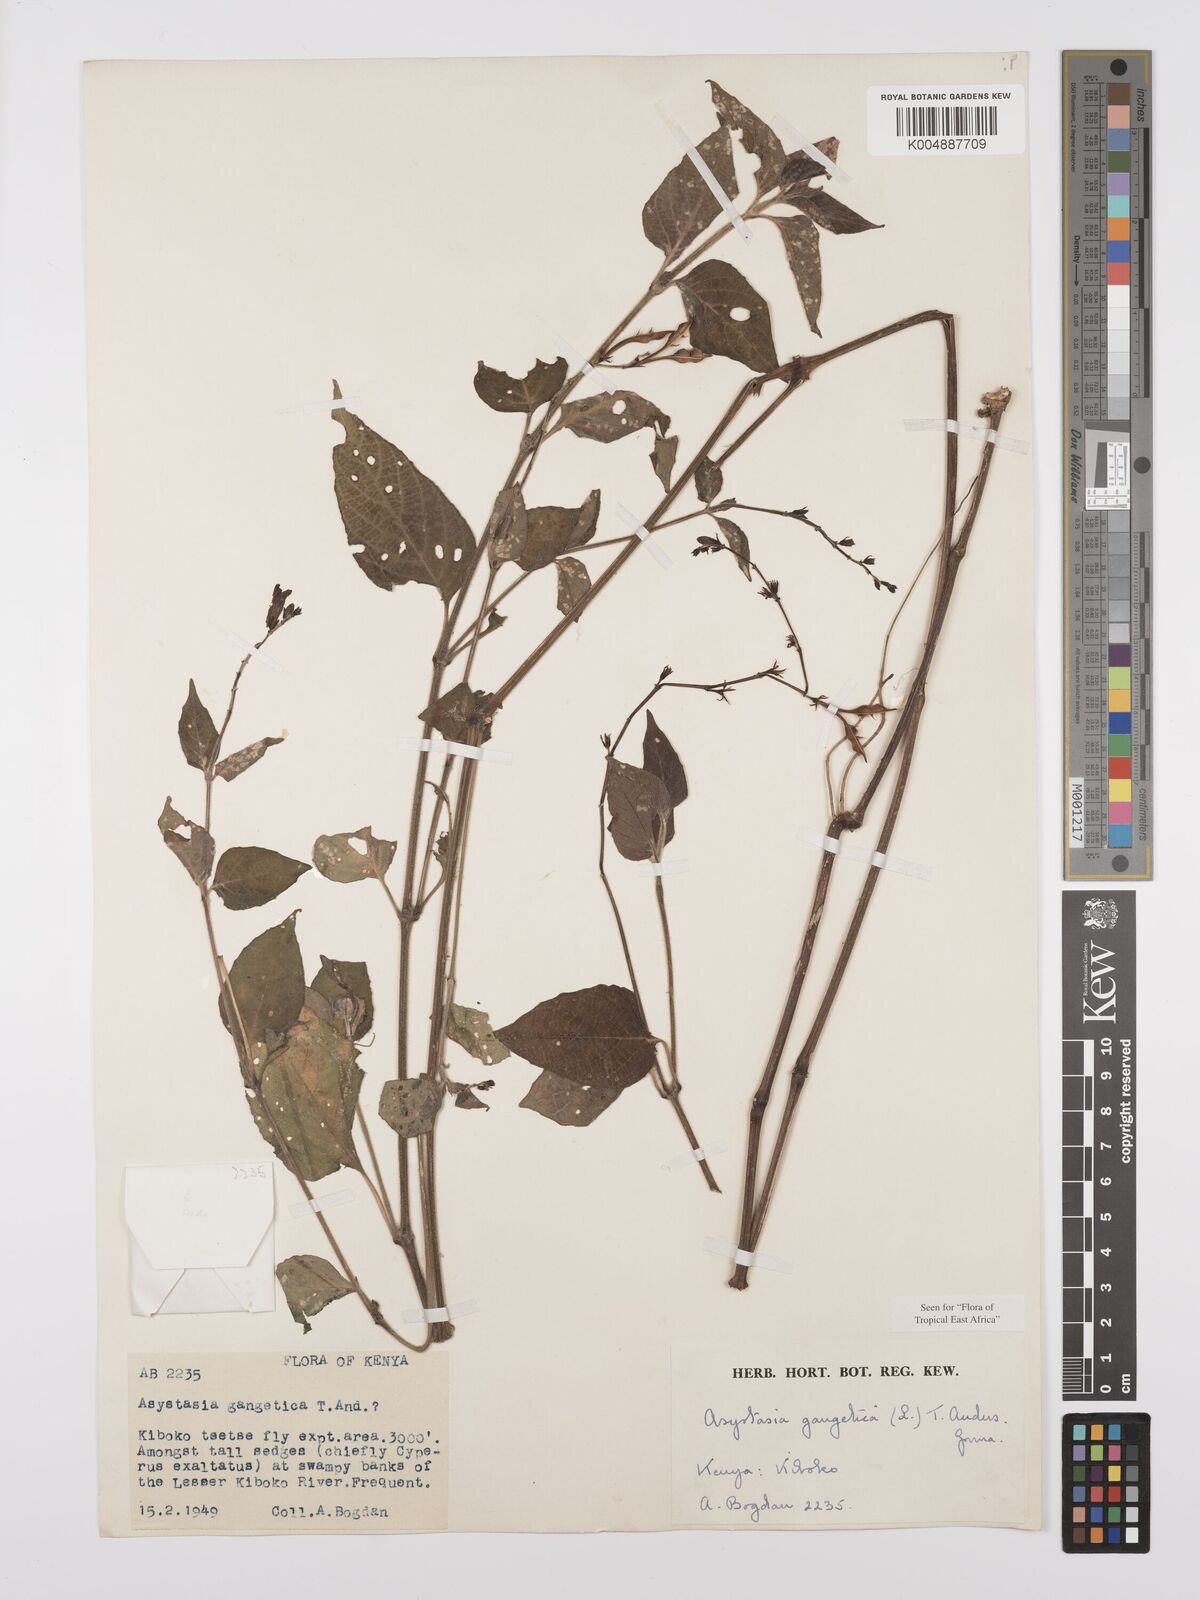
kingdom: Plantae
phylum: Tracheophyta
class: Magnoliopsida
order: Lamiales
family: Acanthaceae
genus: Asystasia
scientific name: Asystasia gangetica
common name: Chinese violet
